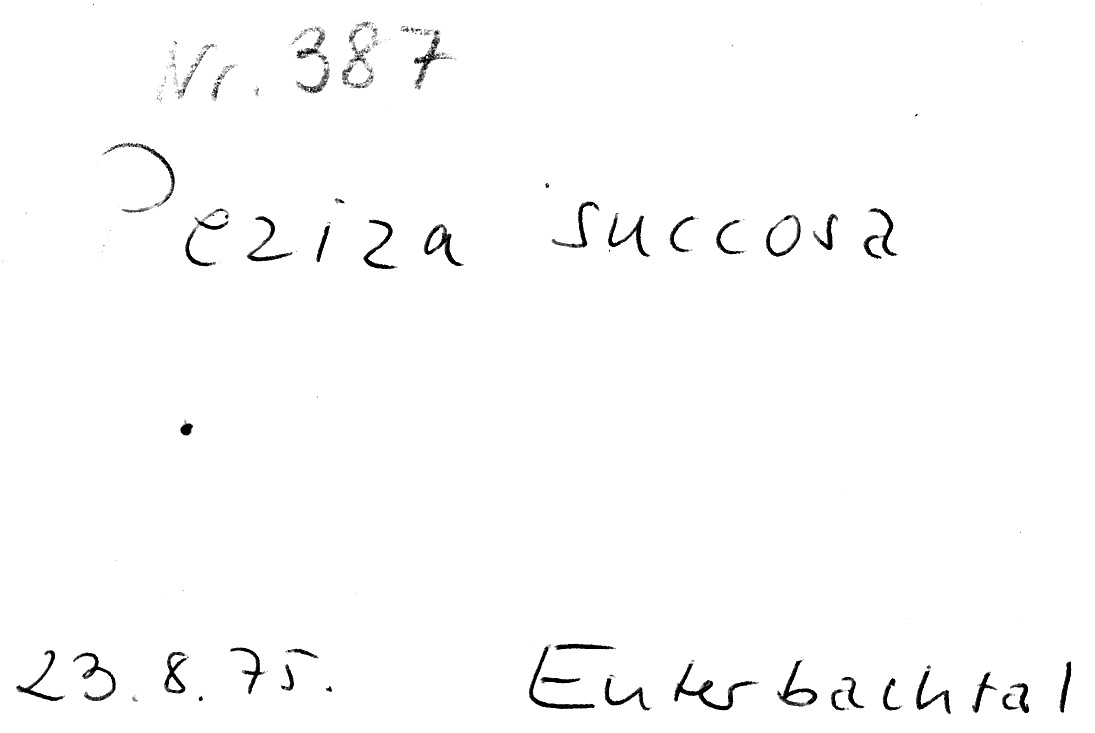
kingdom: Fungi
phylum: Ascomycota
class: Pezizomycetes
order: Pezizales
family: Pezizaceae
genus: Paragalactinia
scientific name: Paragalactinia succosa
